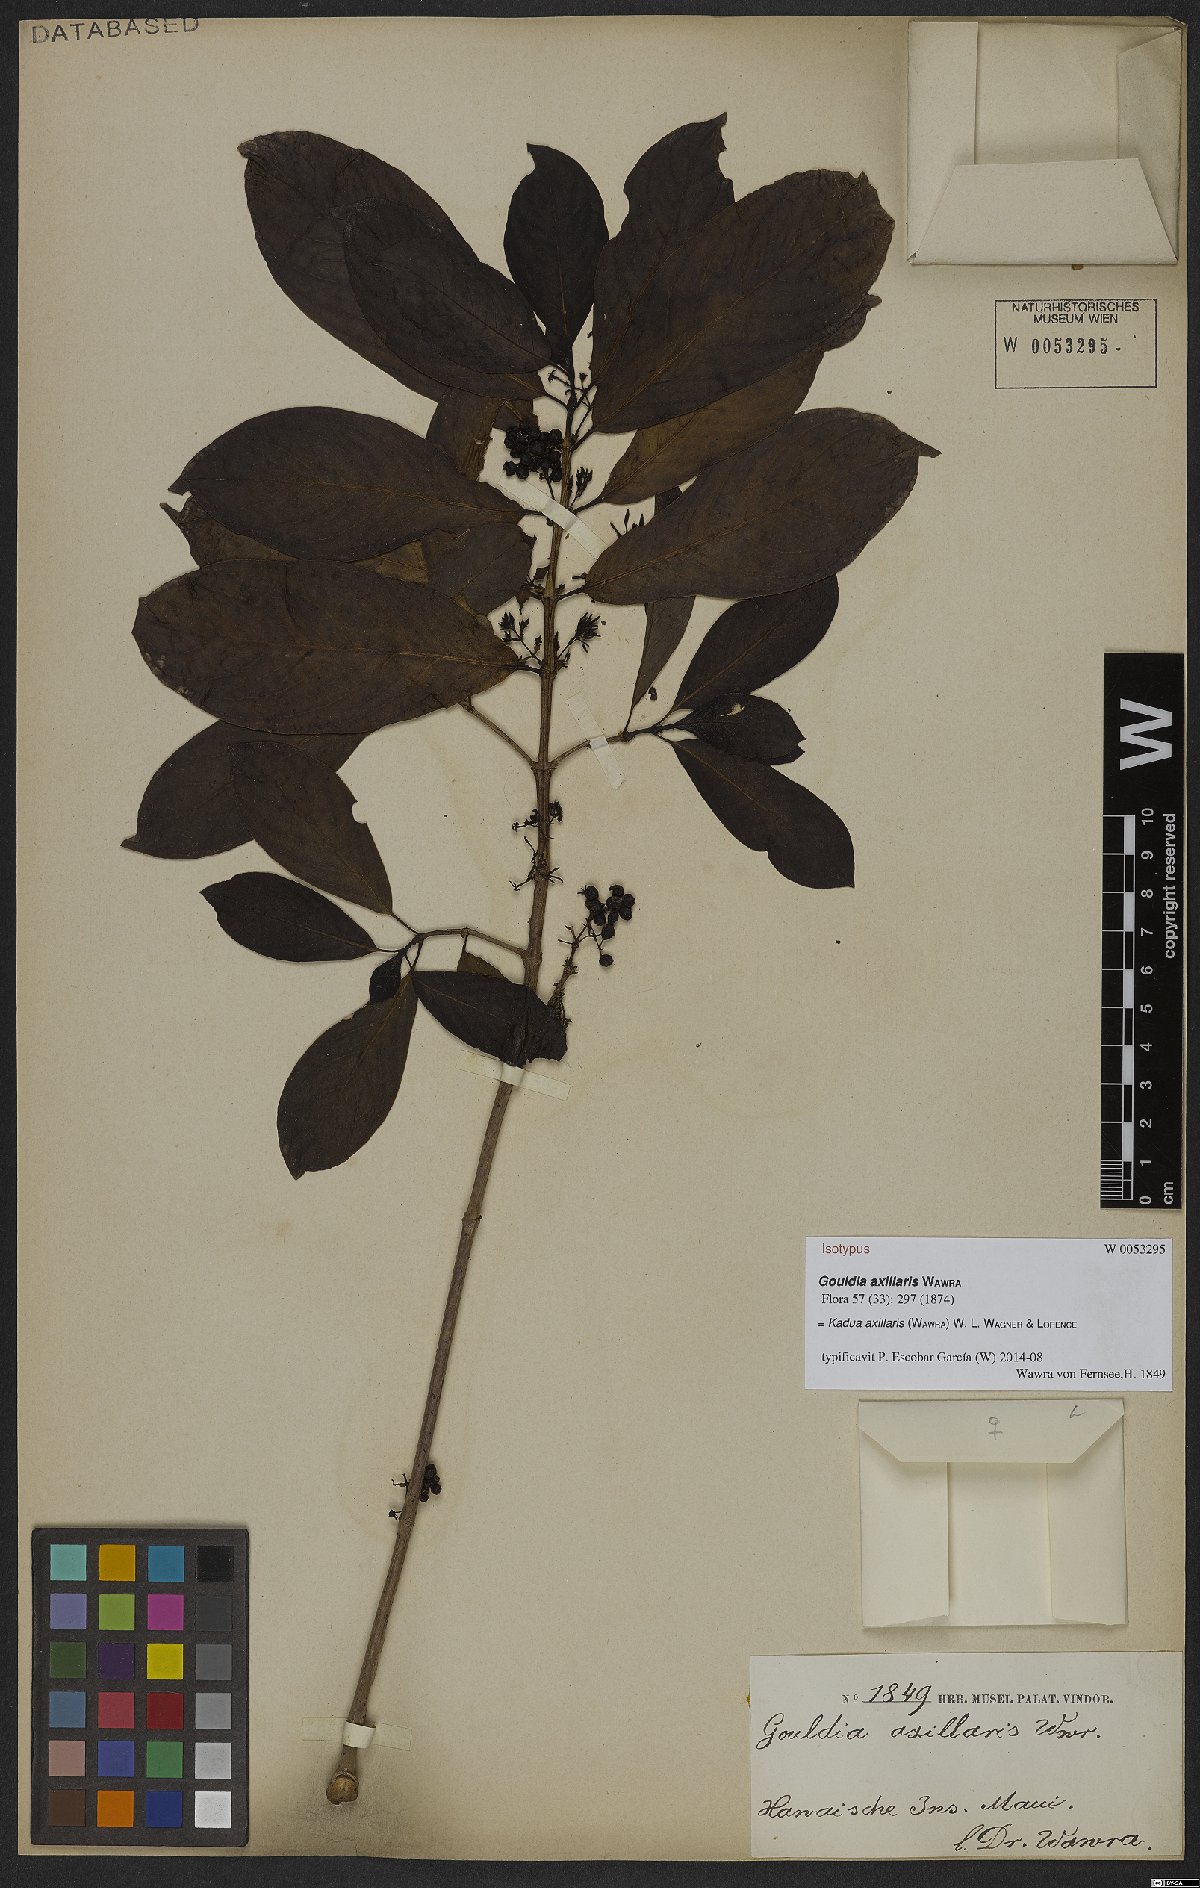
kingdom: Plantae
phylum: Tracheophyta
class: Magnoliopsida
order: Gentianales
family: Rubiaceae
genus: Kadua
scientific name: Kadua axillaris
